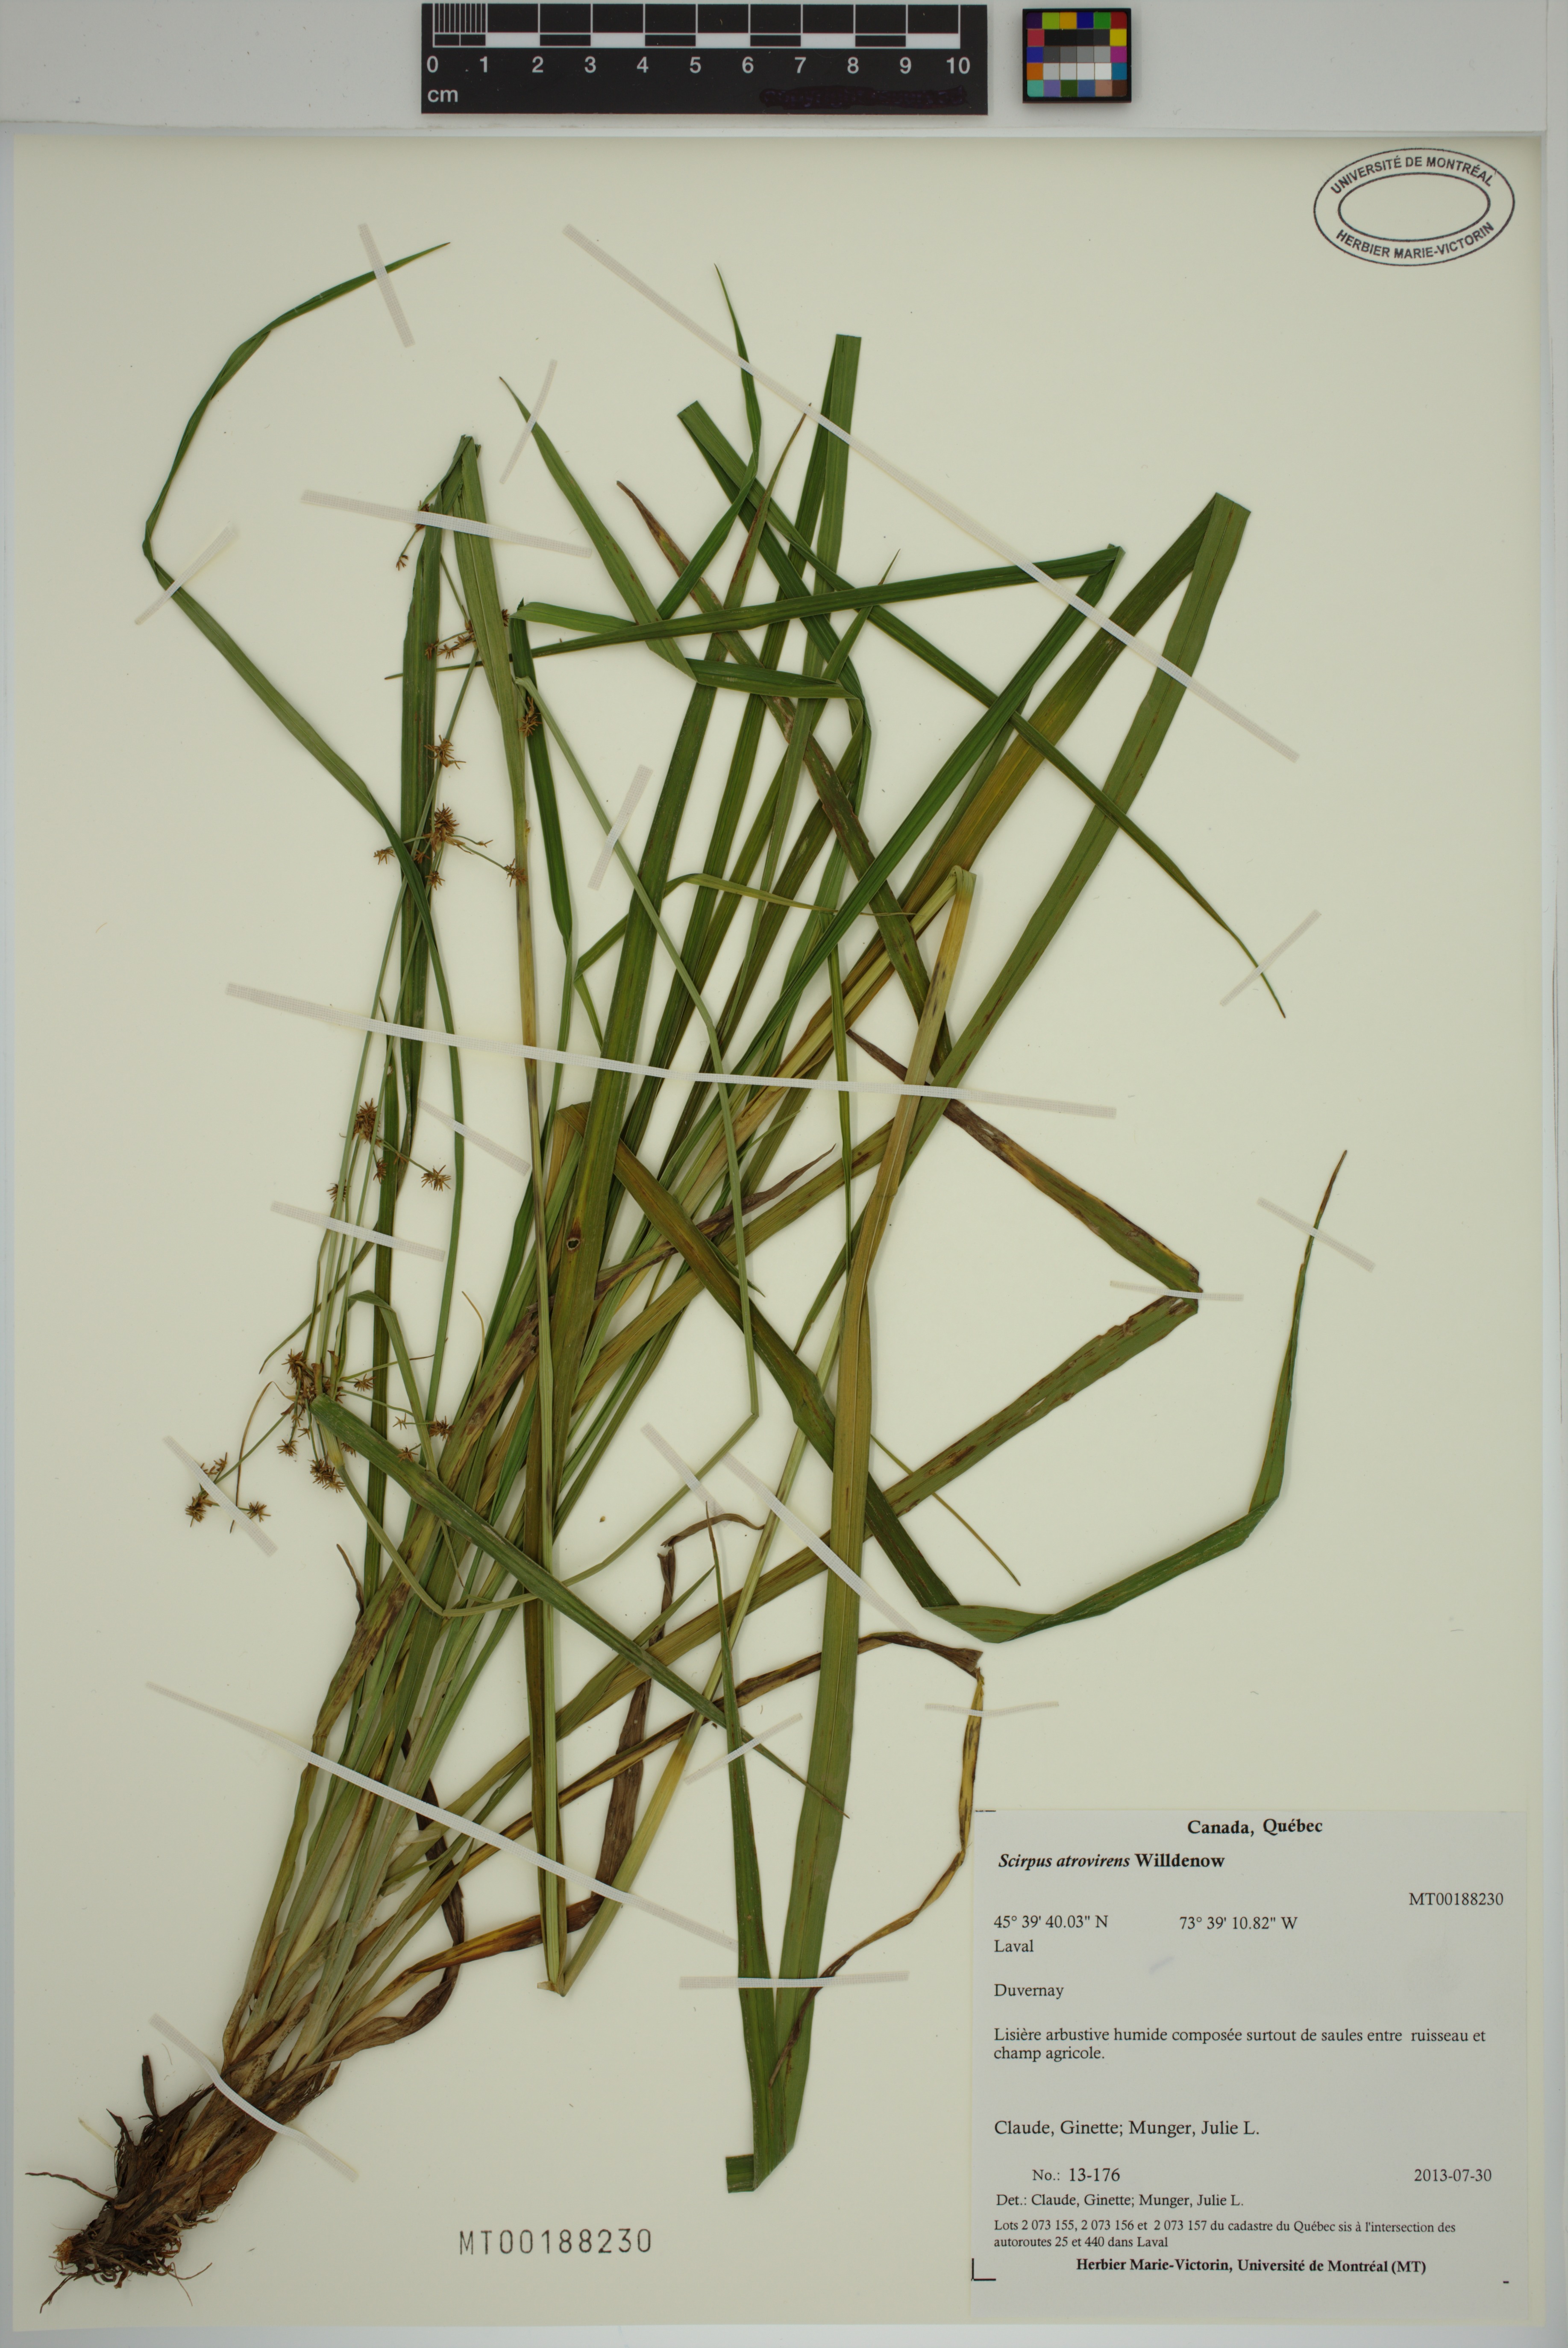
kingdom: Plantae
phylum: Tracheophyta
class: Liliopsida
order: Poales
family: Cyperaceae
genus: Scirpus
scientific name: Scirpus hattorianus
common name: Early dark-green bulrush
